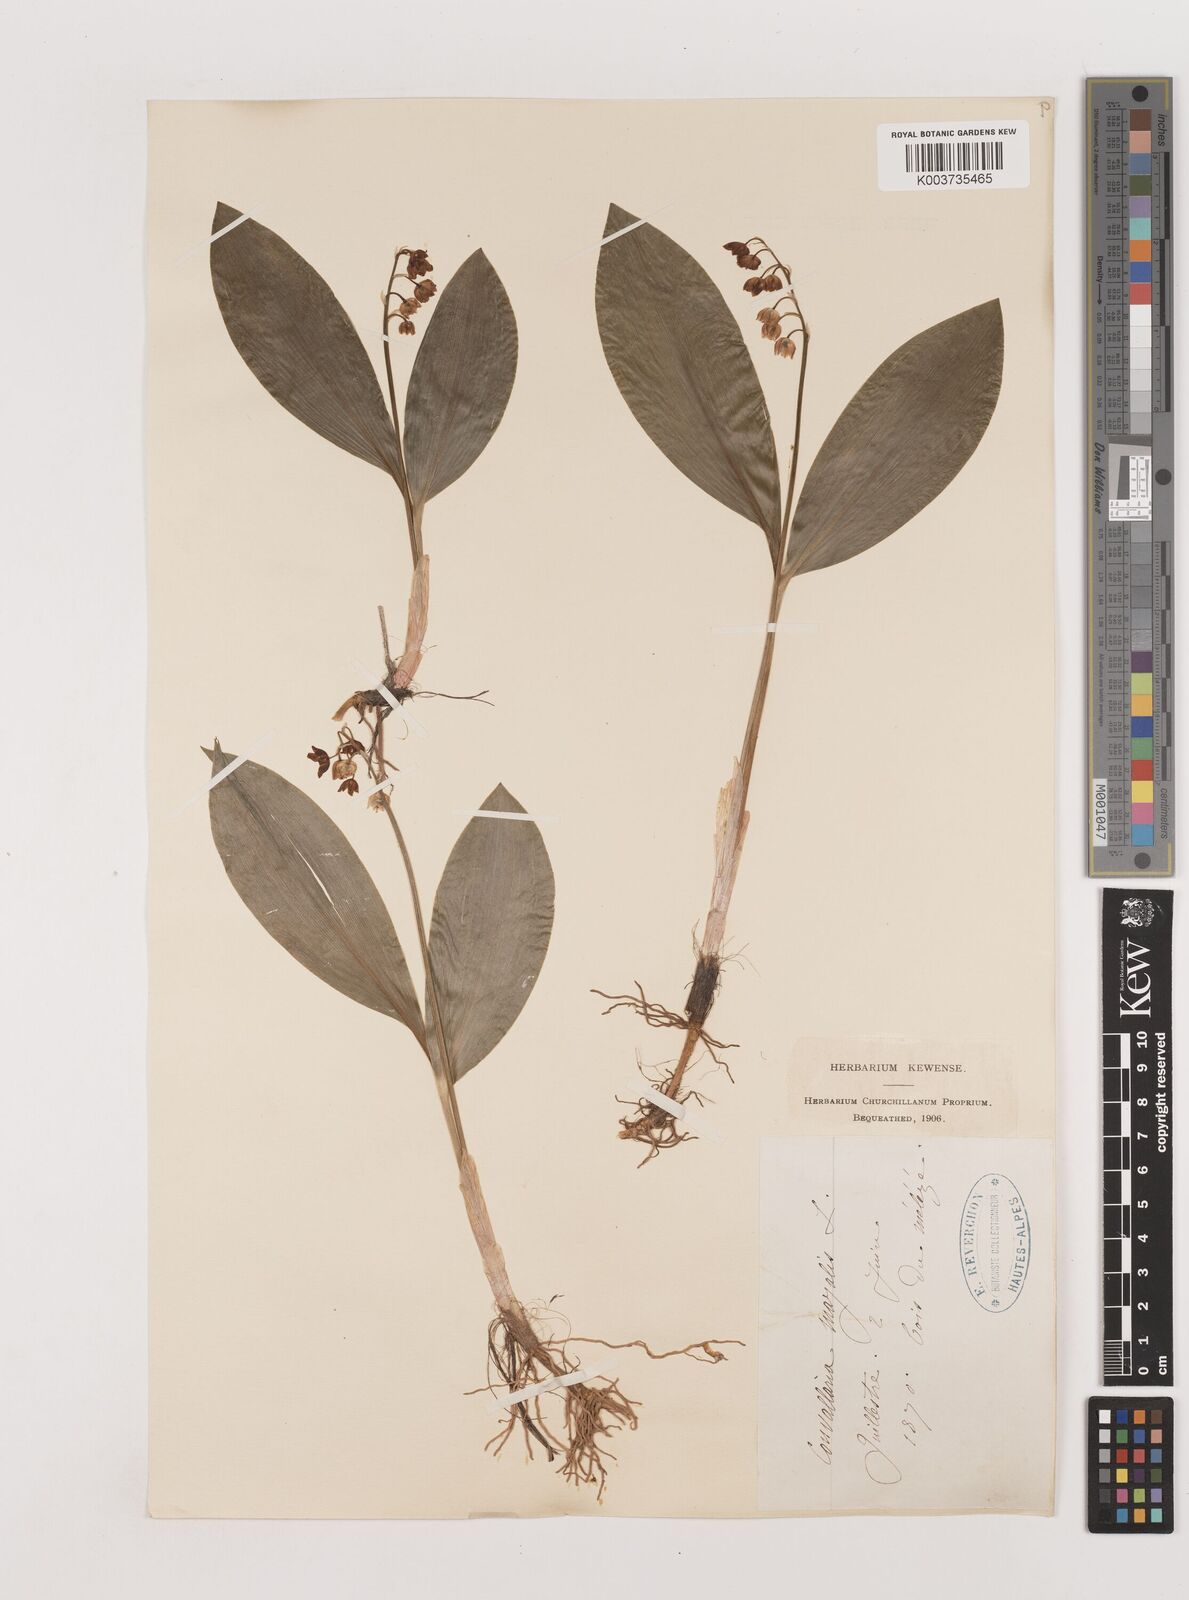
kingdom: Plantae
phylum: Tracheophyta
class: Liliopsida
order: Asparagales
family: Asparagaceae
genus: Convallaria
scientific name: Convallaria majalis
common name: Lily-of-the-valley
